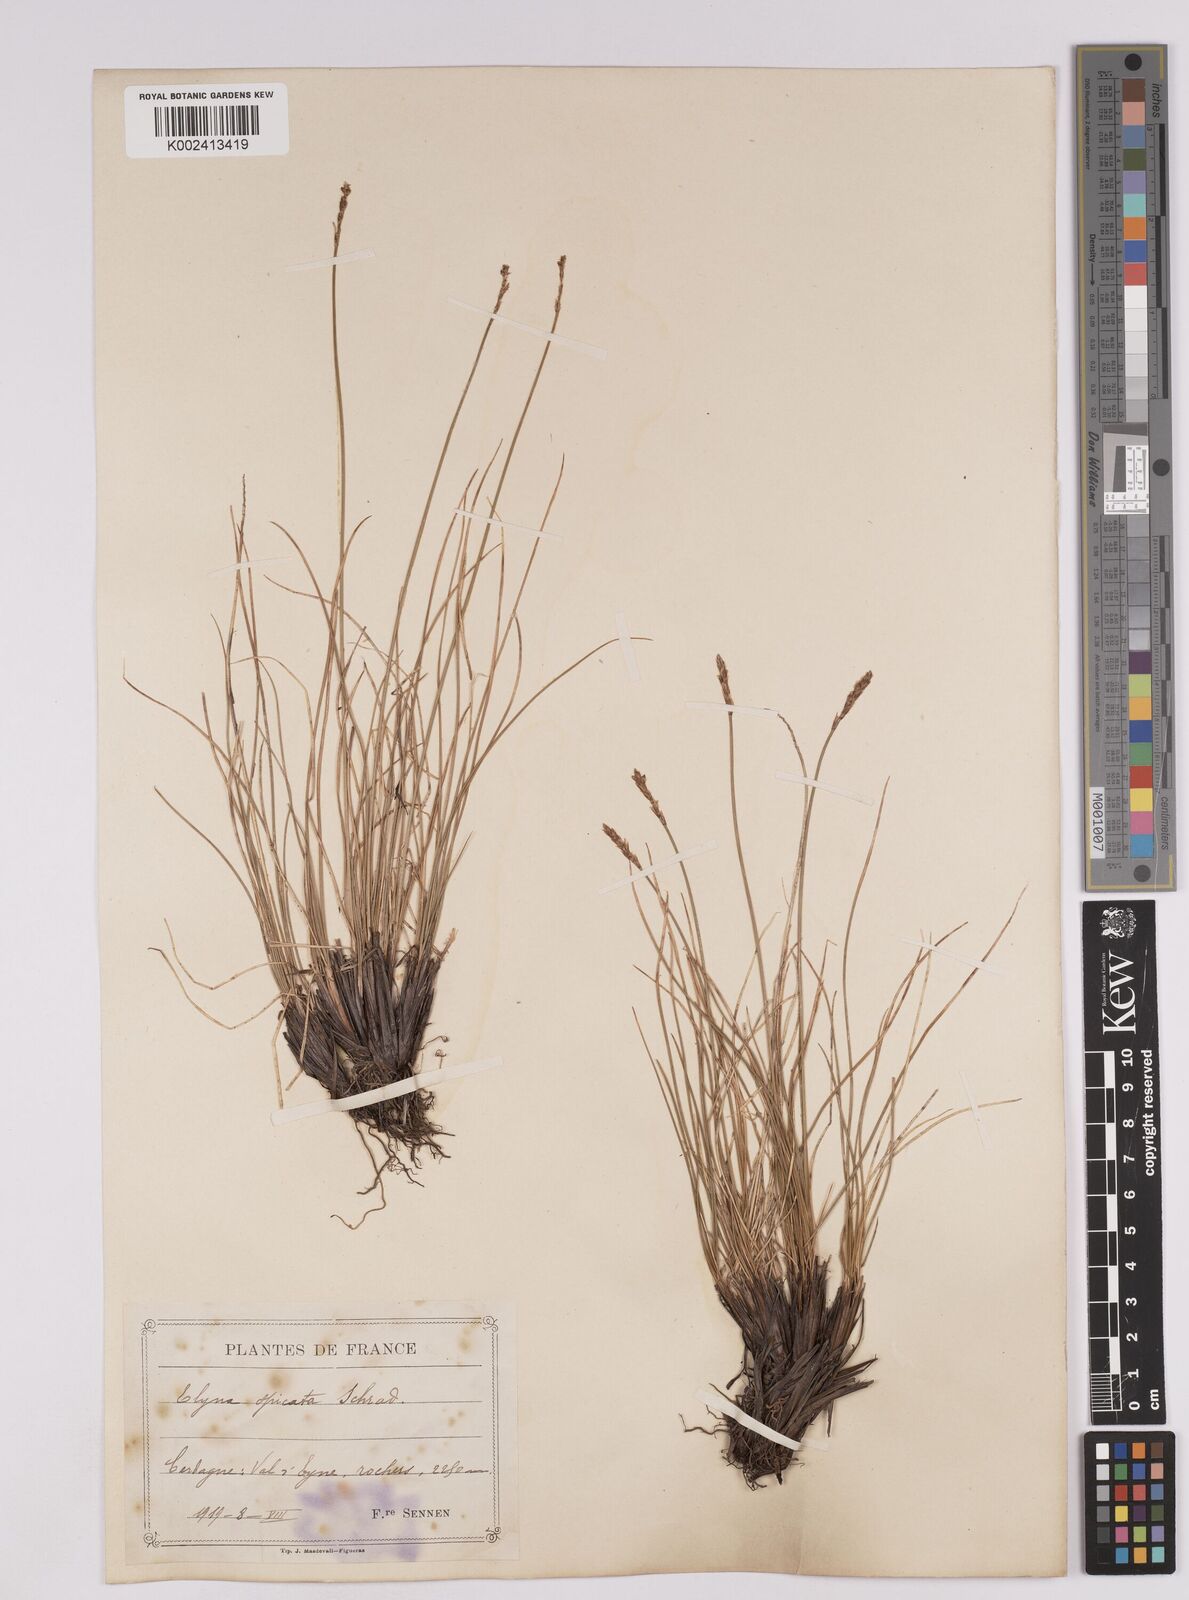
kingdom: Plantae
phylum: Tracheophyta
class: Liliopsida
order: Poales
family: Cyperaceae
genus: Carex
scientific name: Carex myosuroides
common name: Bellard's bog sedge
